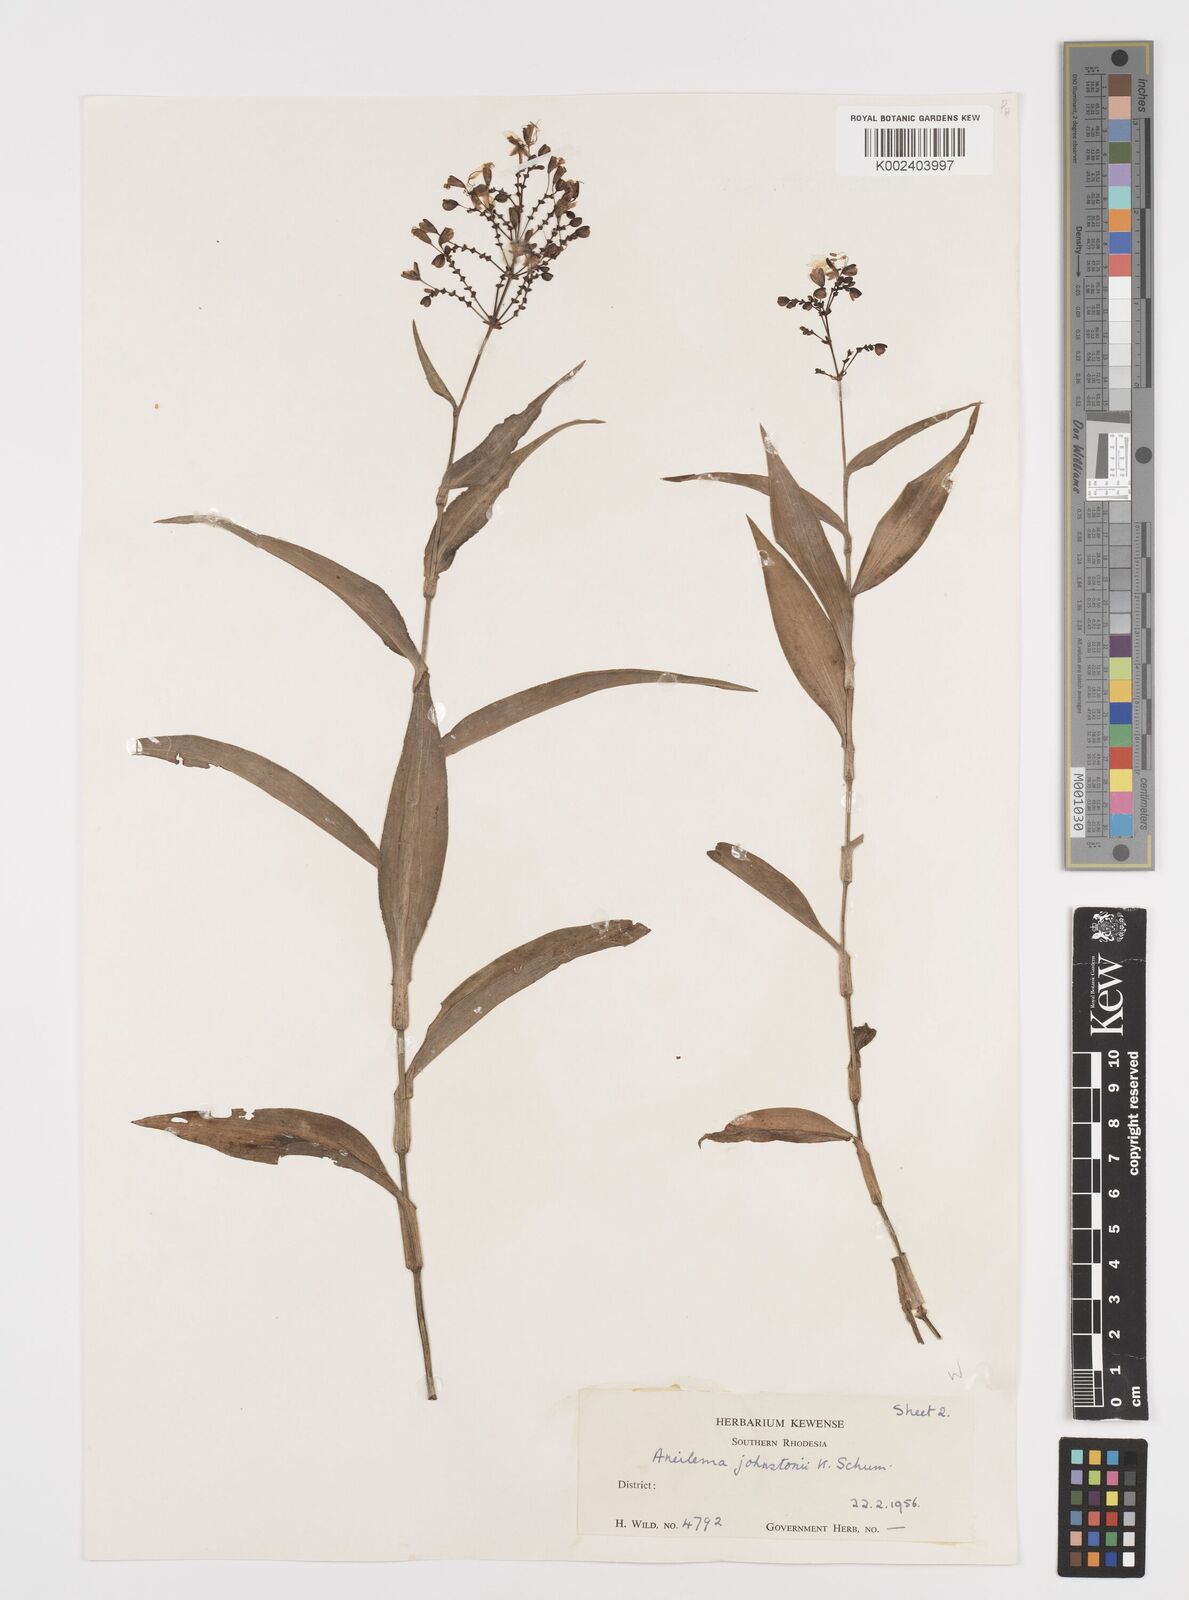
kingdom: Plantae
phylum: Tracheophyta
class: Liliopsida
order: Commelinales
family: Commelinaceae
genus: Aneilema
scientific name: Aneilema johnstonii
